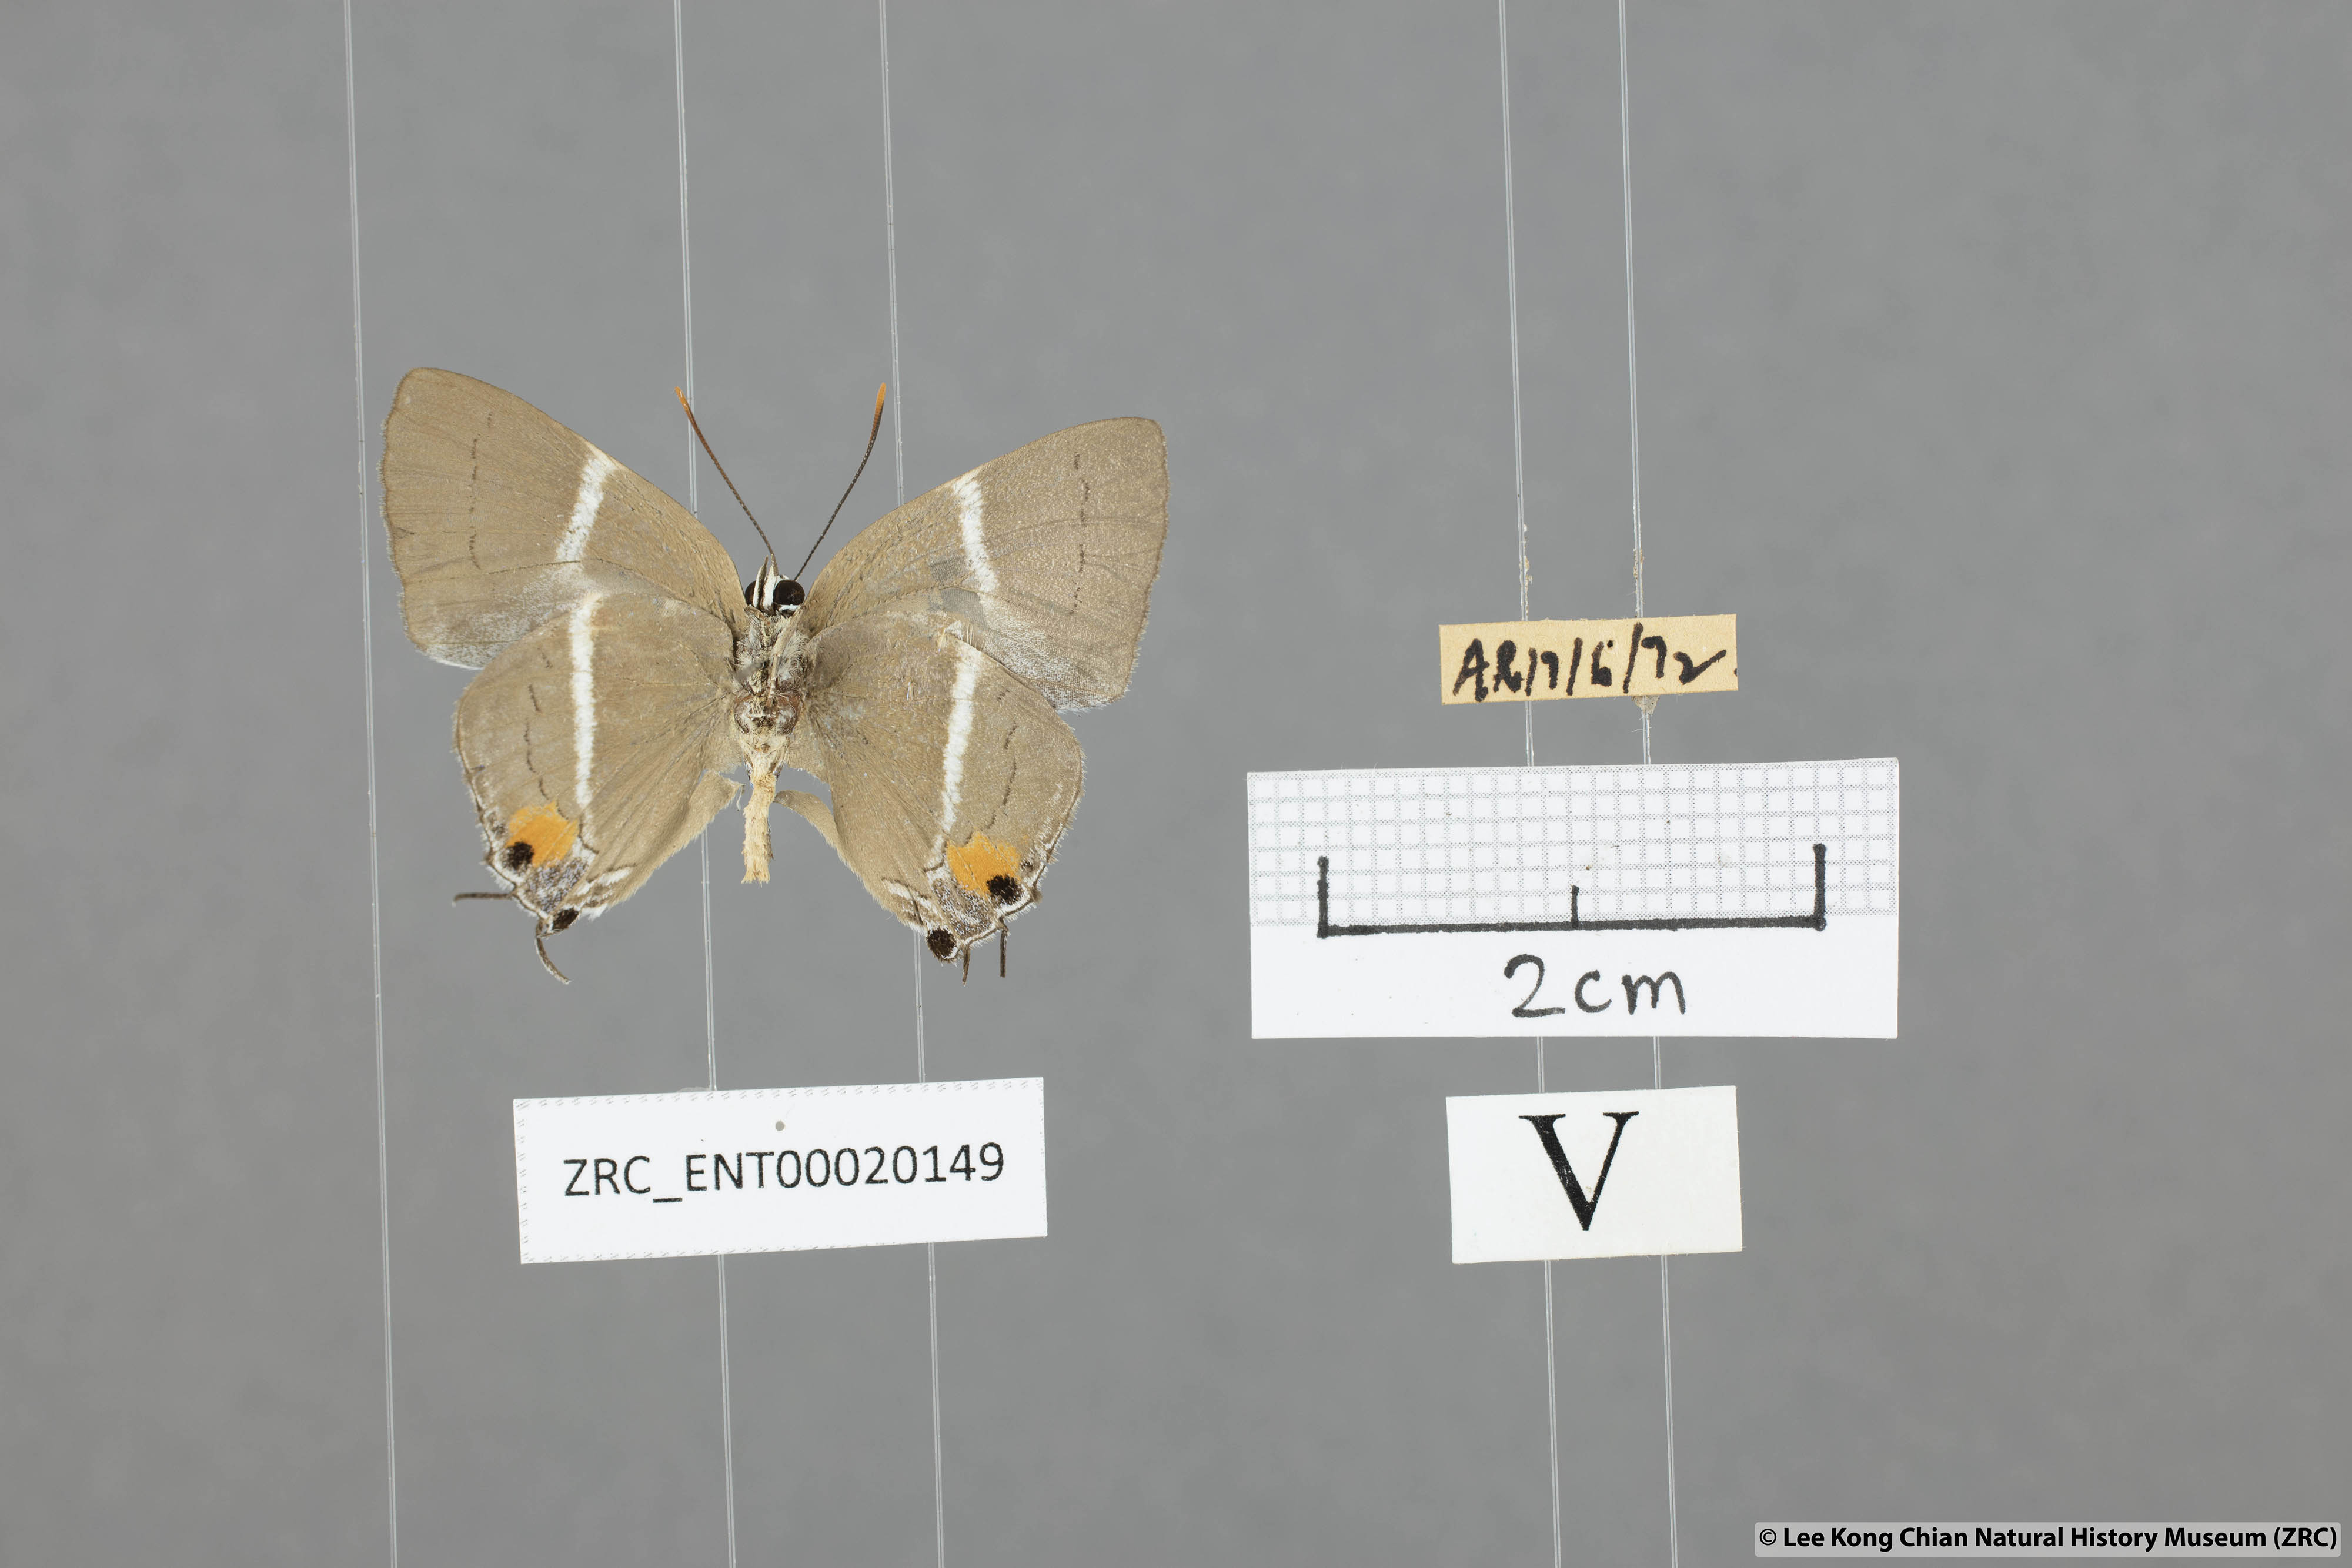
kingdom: Animalia
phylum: Arthropoda
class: Insecta
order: Lepidoptera
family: Lycaenidae
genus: Dacalana
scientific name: Dacalana sinhara
